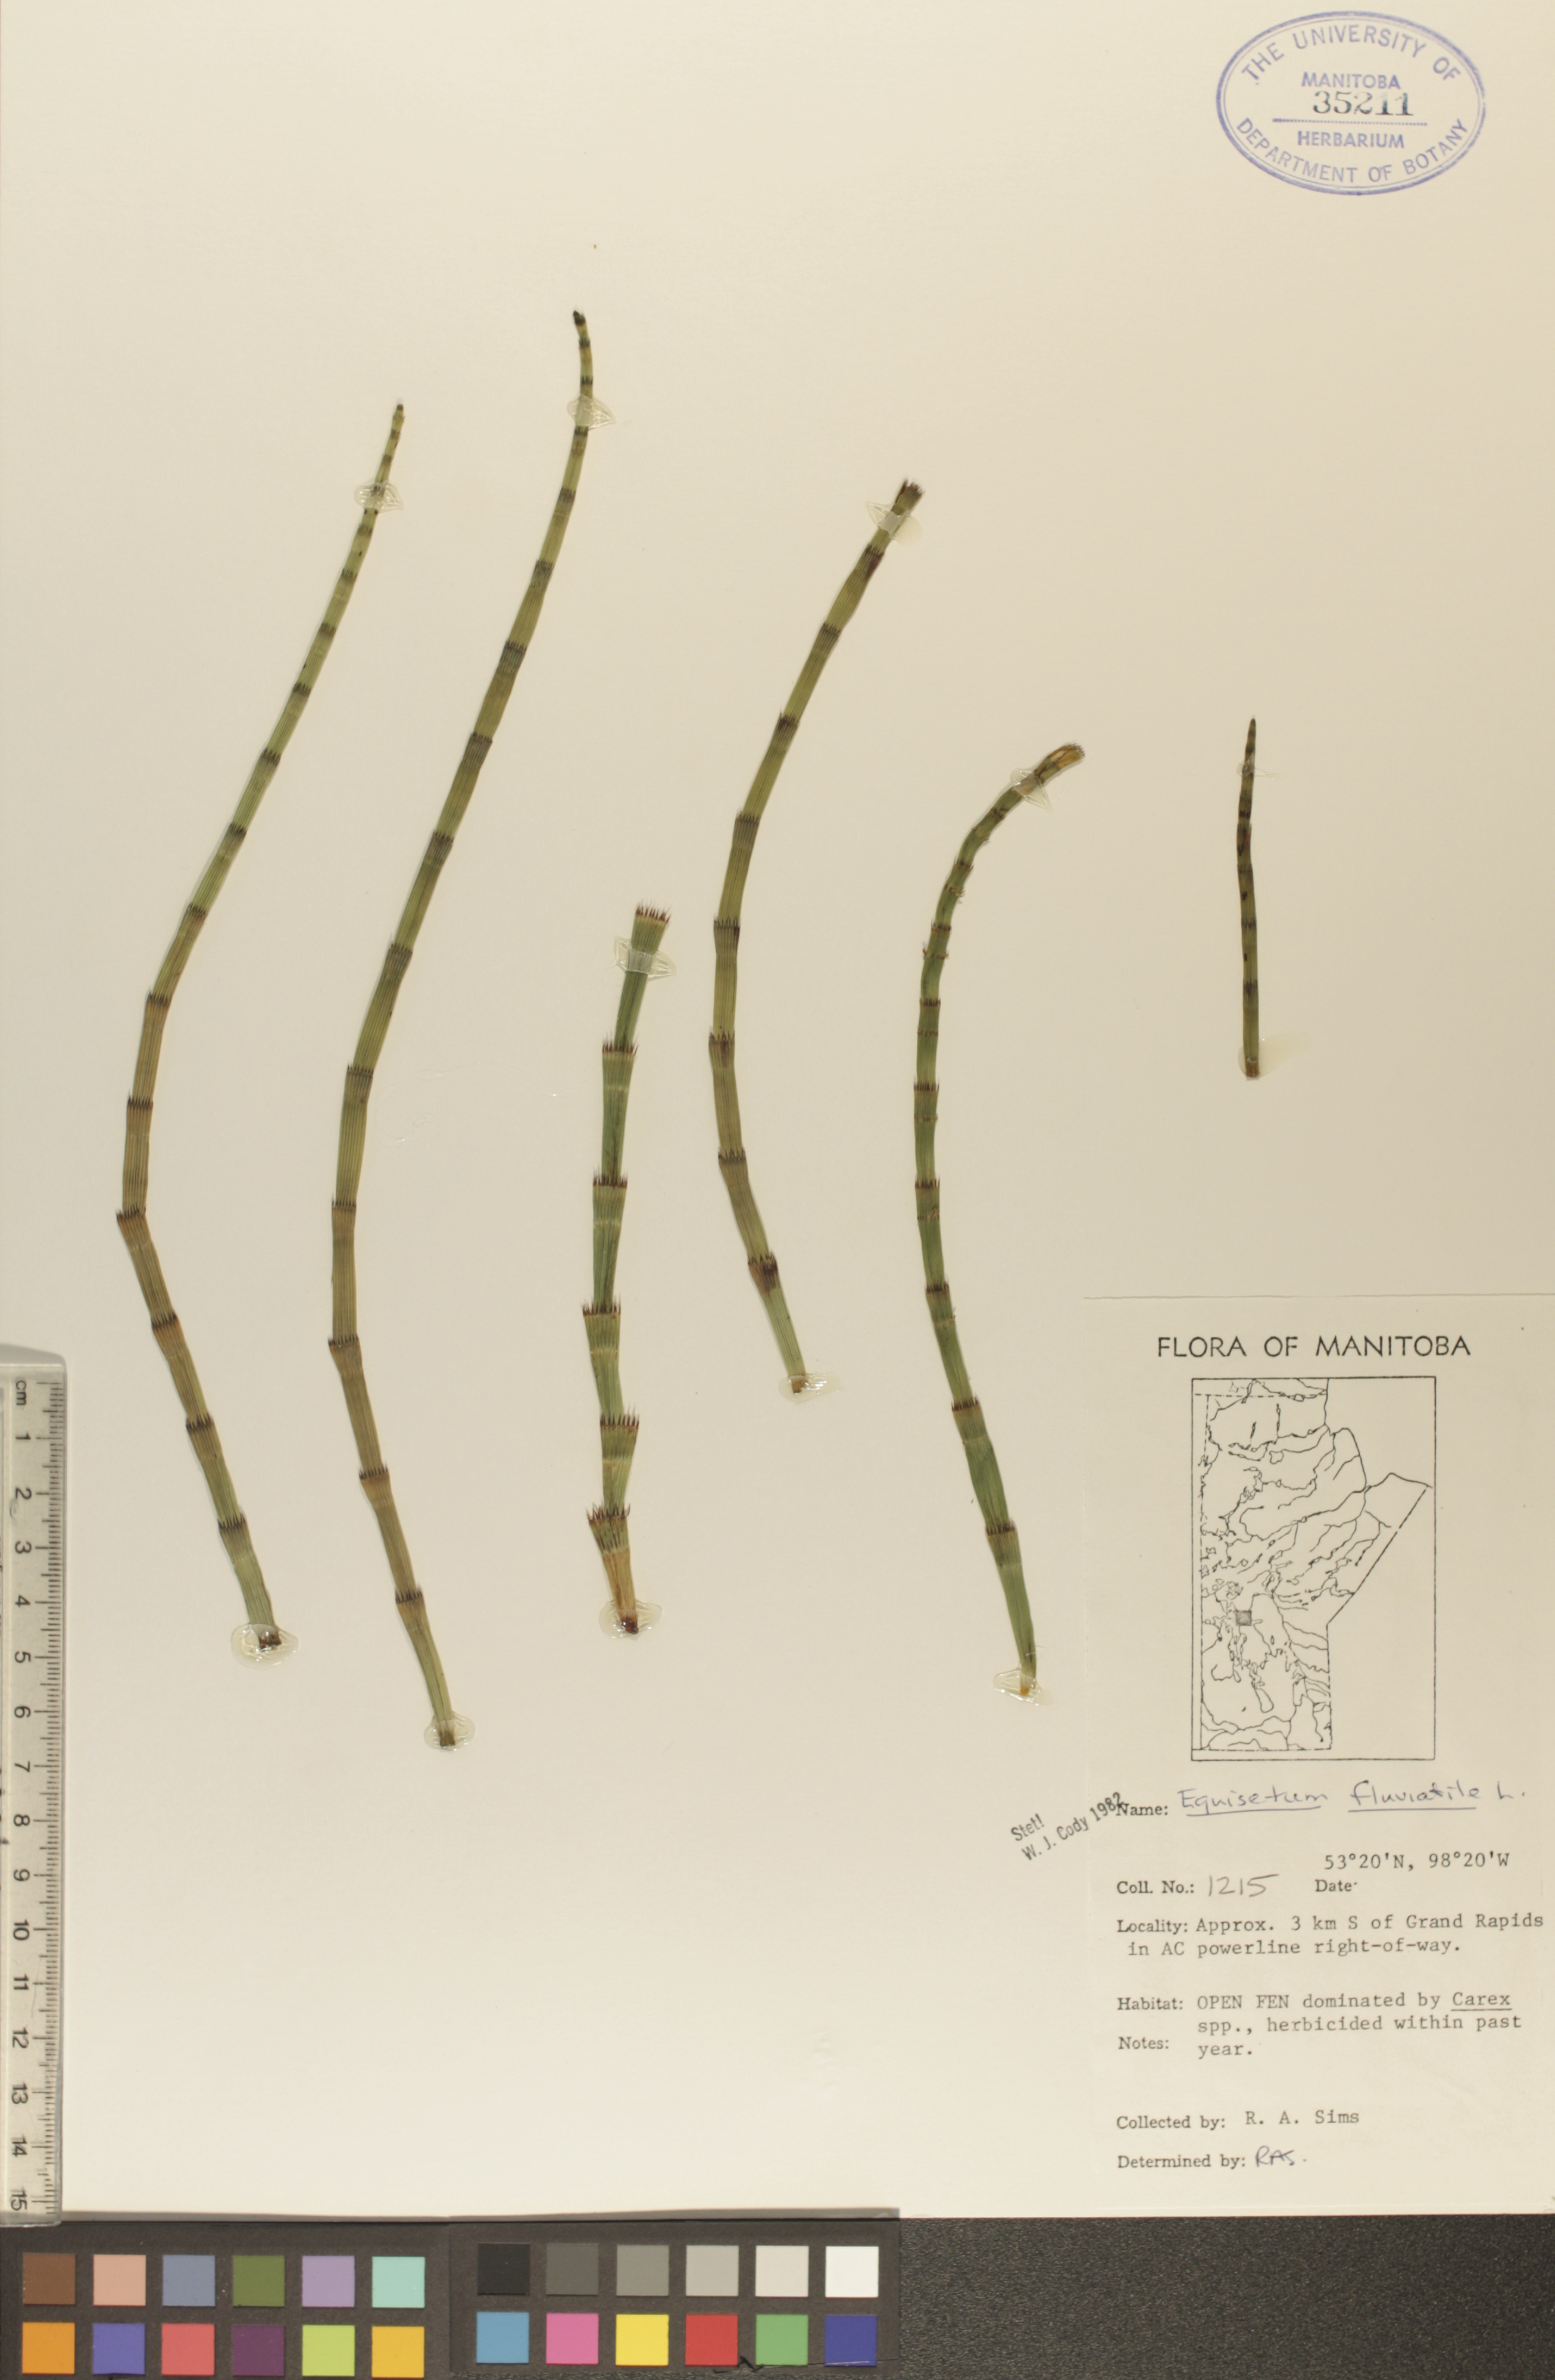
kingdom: Plantae
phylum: Tracheophyta
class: Polypodiopsida
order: Equisetales
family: Equisetaceae
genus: Equisetum
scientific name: Equisetum fluviatile
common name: Water horsetail
